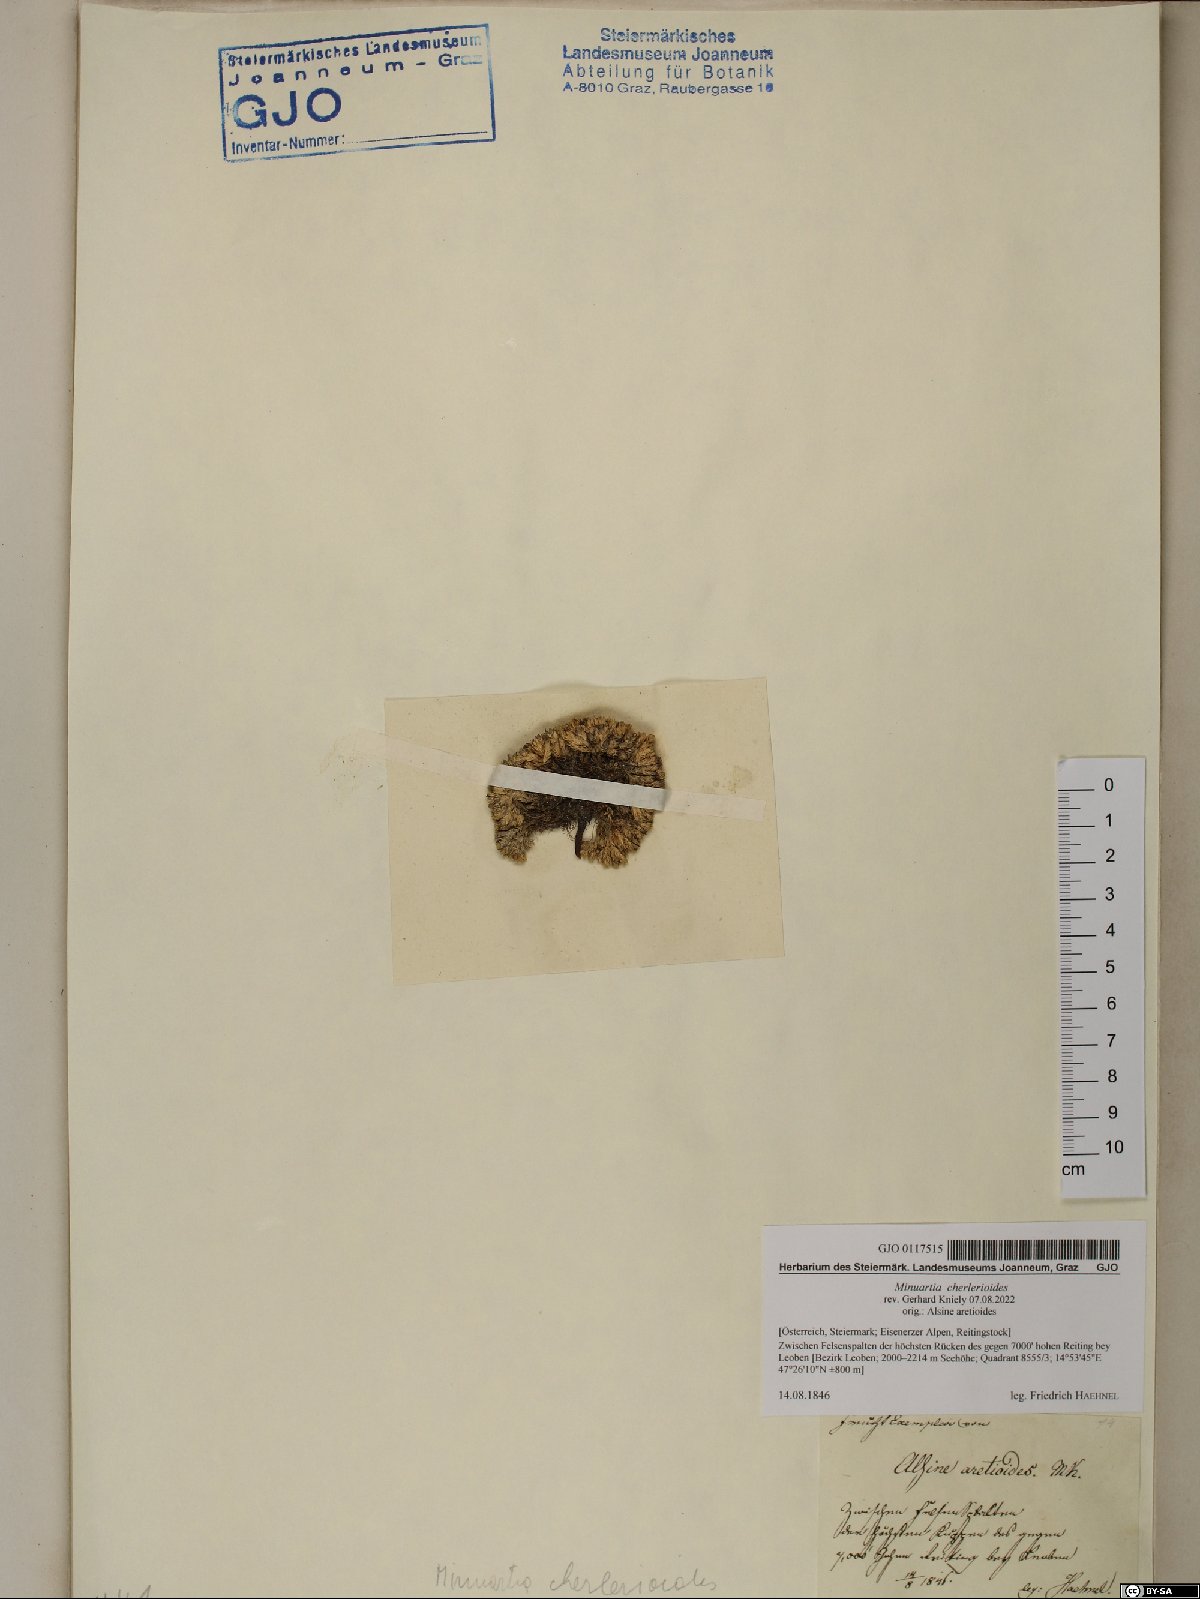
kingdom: Plantae
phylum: Tracheophyta
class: Magnoliopsida
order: Caryophyllales
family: Caryophyllaceae
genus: Facchinia
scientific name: Facchinia cherlerioides
